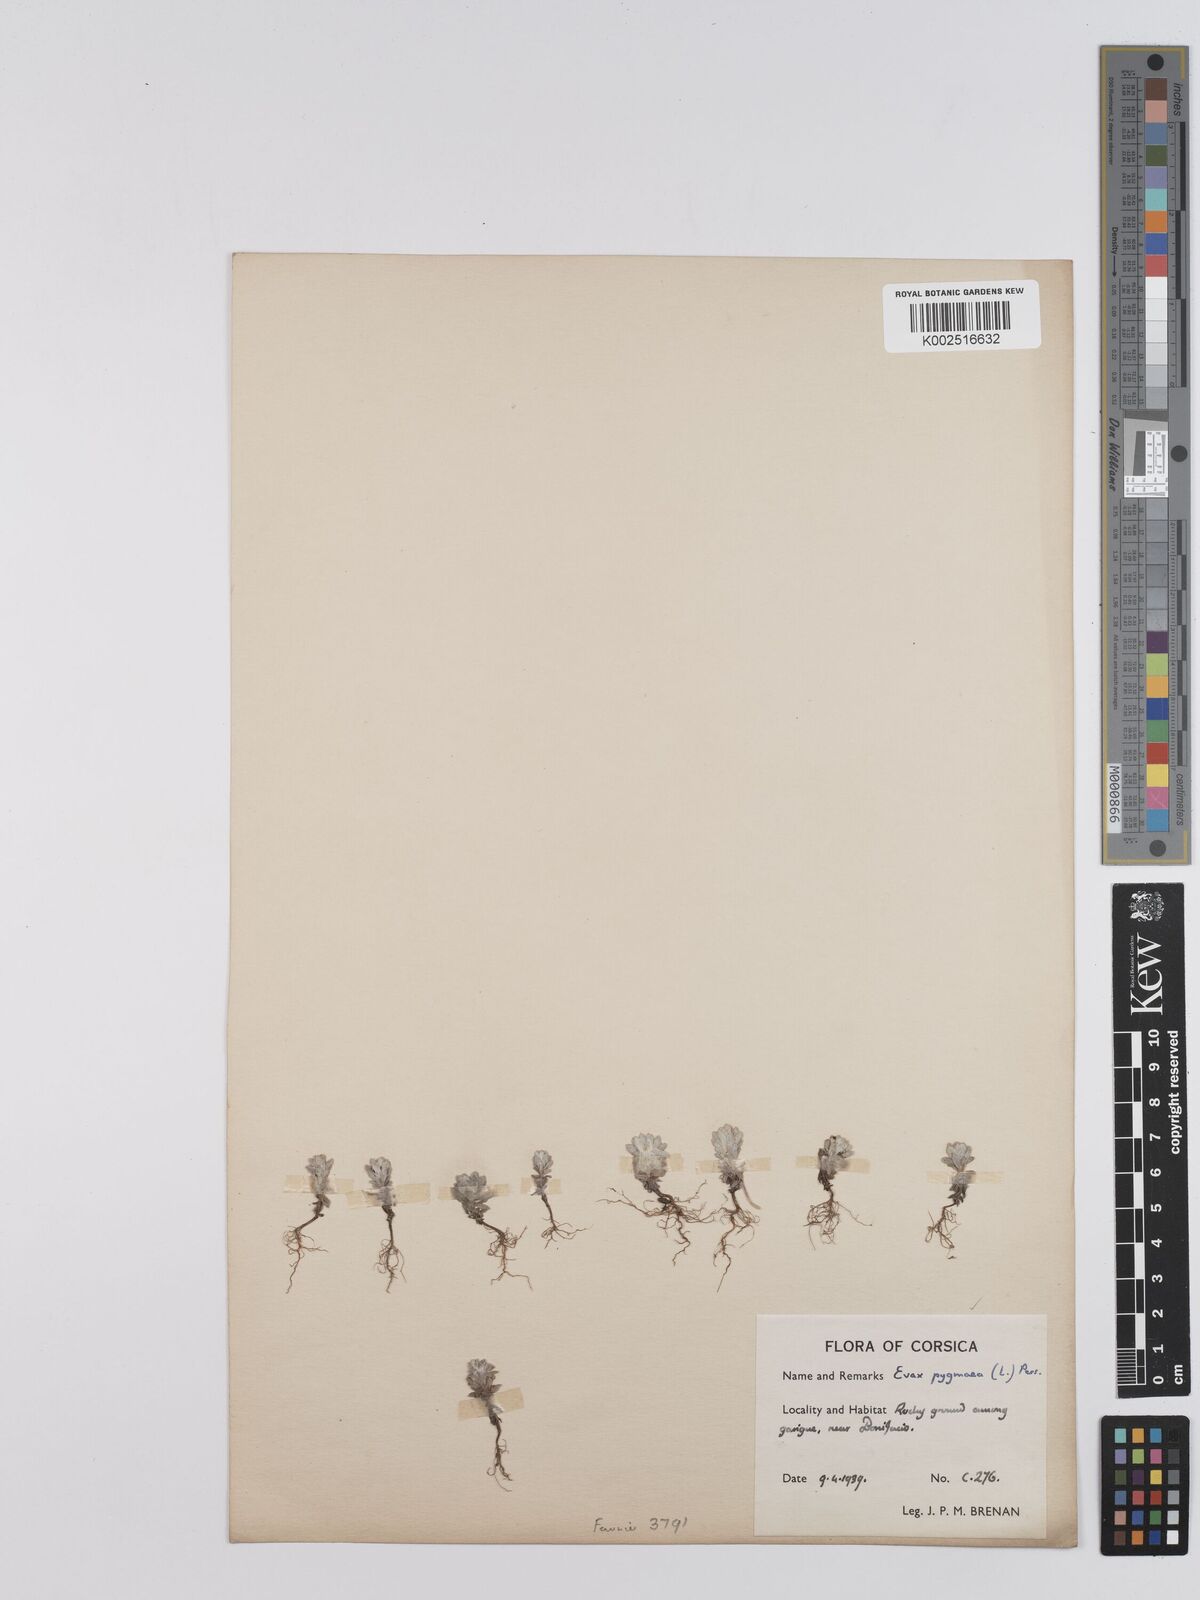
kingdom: Plantae
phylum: Tracheophyta
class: Magnoliopsida
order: Asterales
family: Asteraceae
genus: Filago
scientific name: Filago pygmaea
